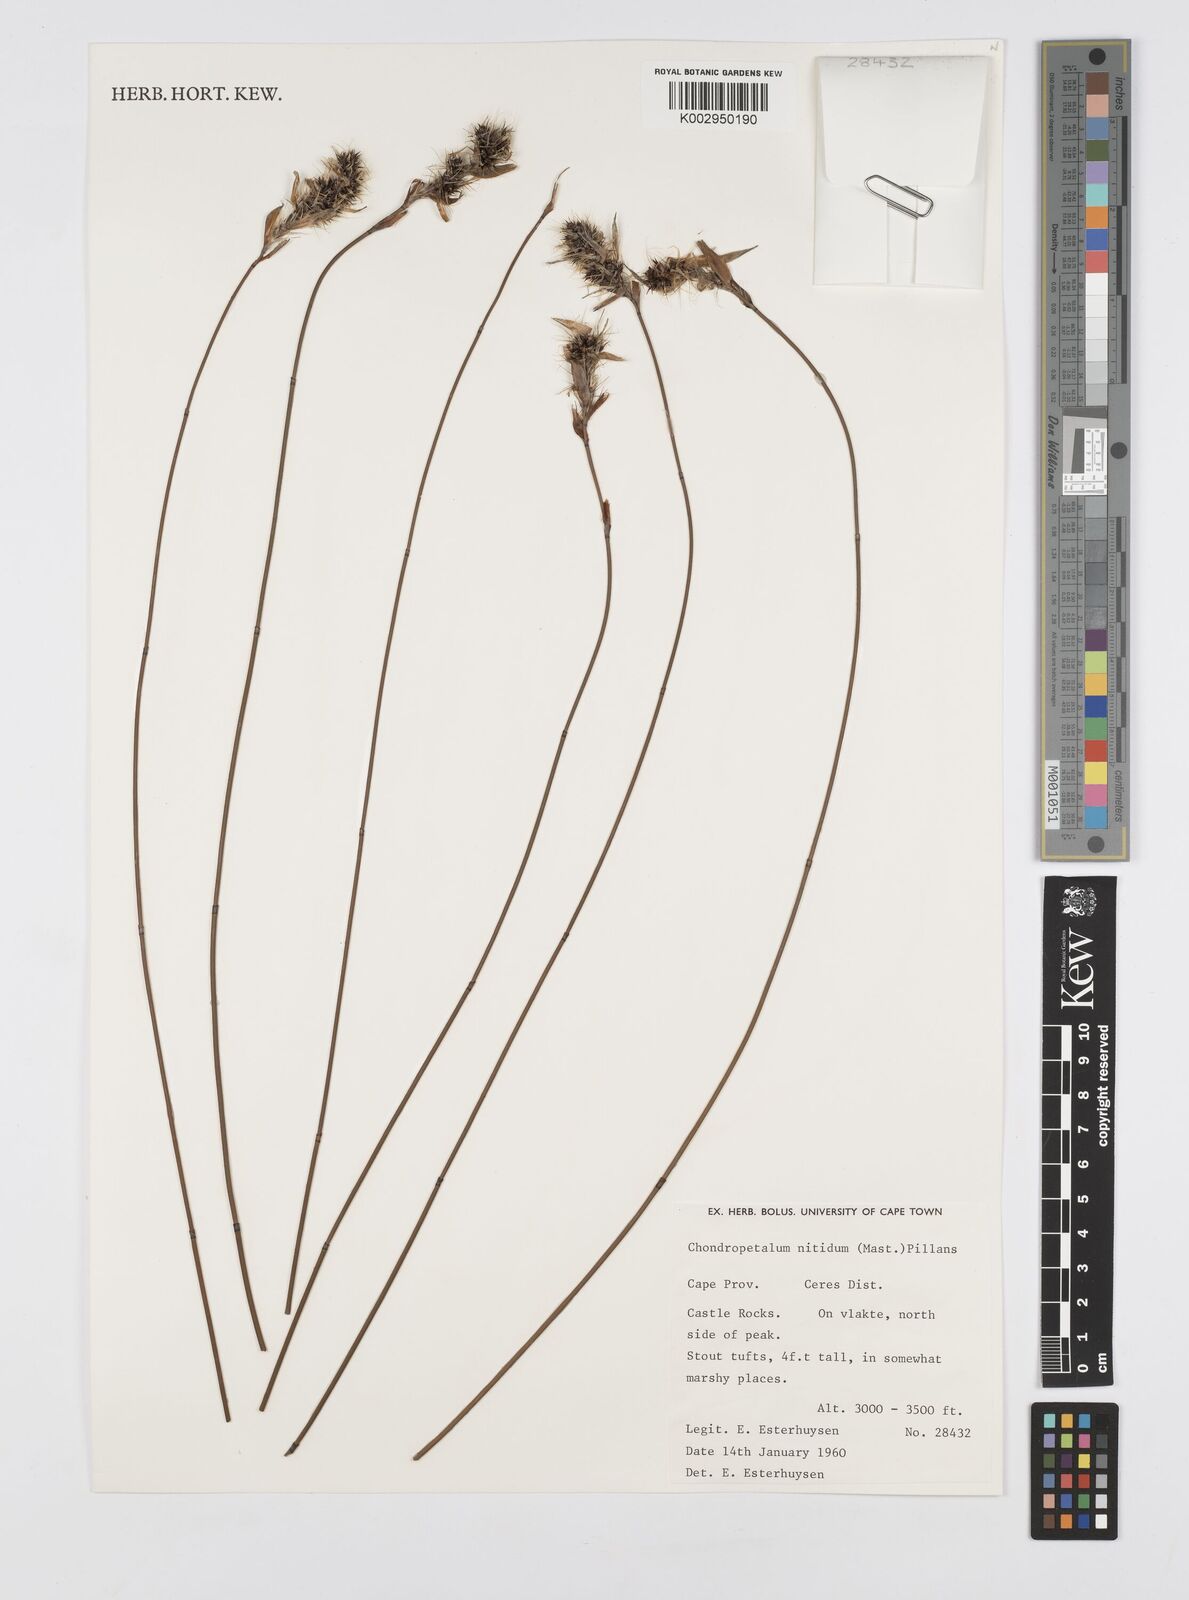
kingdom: Plantae
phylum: Tracheophyta
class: Liliopsida
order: Poales
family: Restionaceae
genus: Askidiosperma
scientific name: Askidiosperma nitidum
